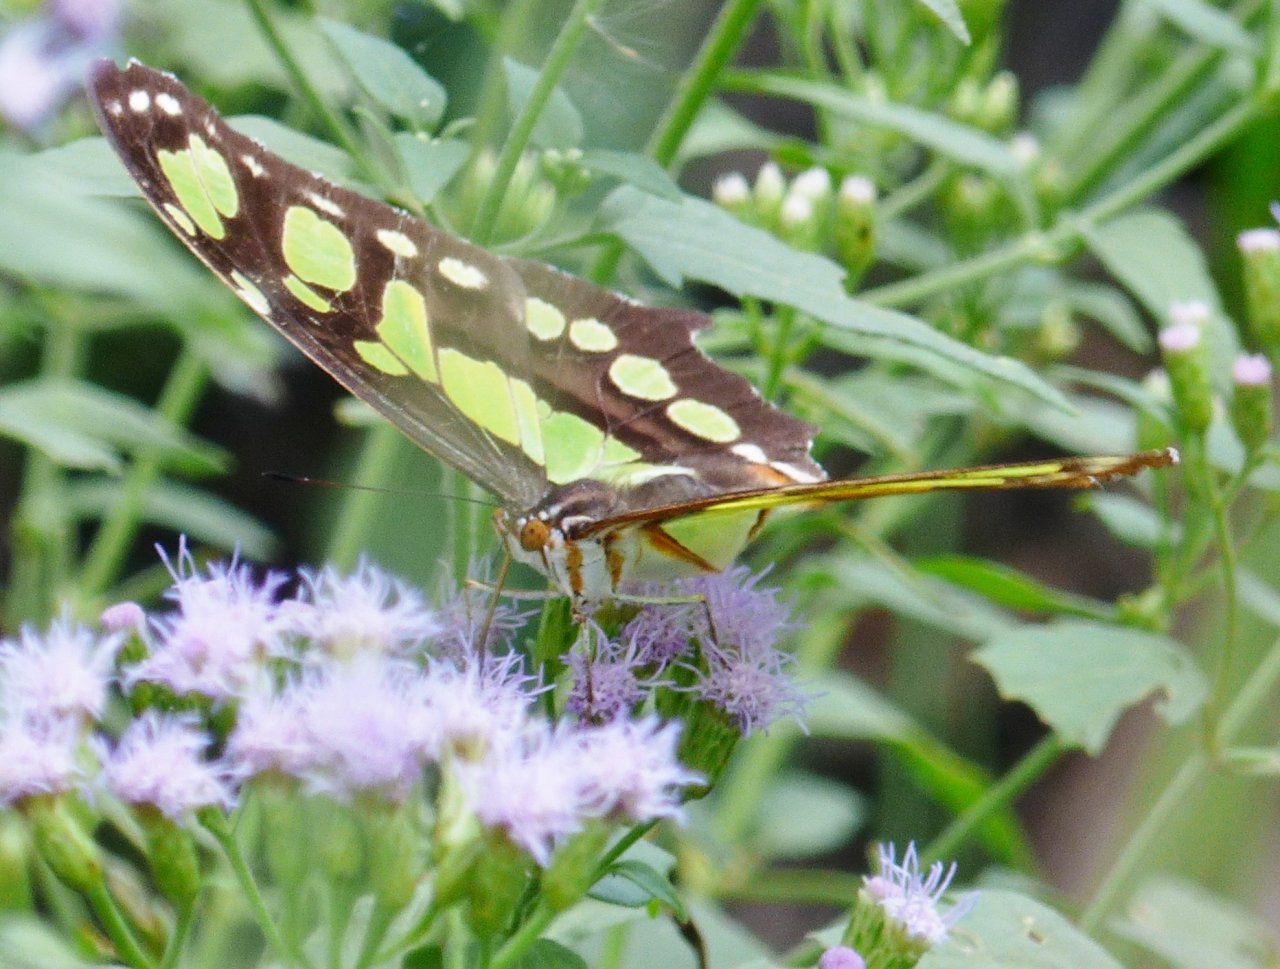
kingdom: Animalia
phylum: Arthropoda
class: Insecta
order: Lepidoptera
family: Nymphalidae
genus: Siproeta
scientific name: Siproeta stelenes
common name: Malachite
